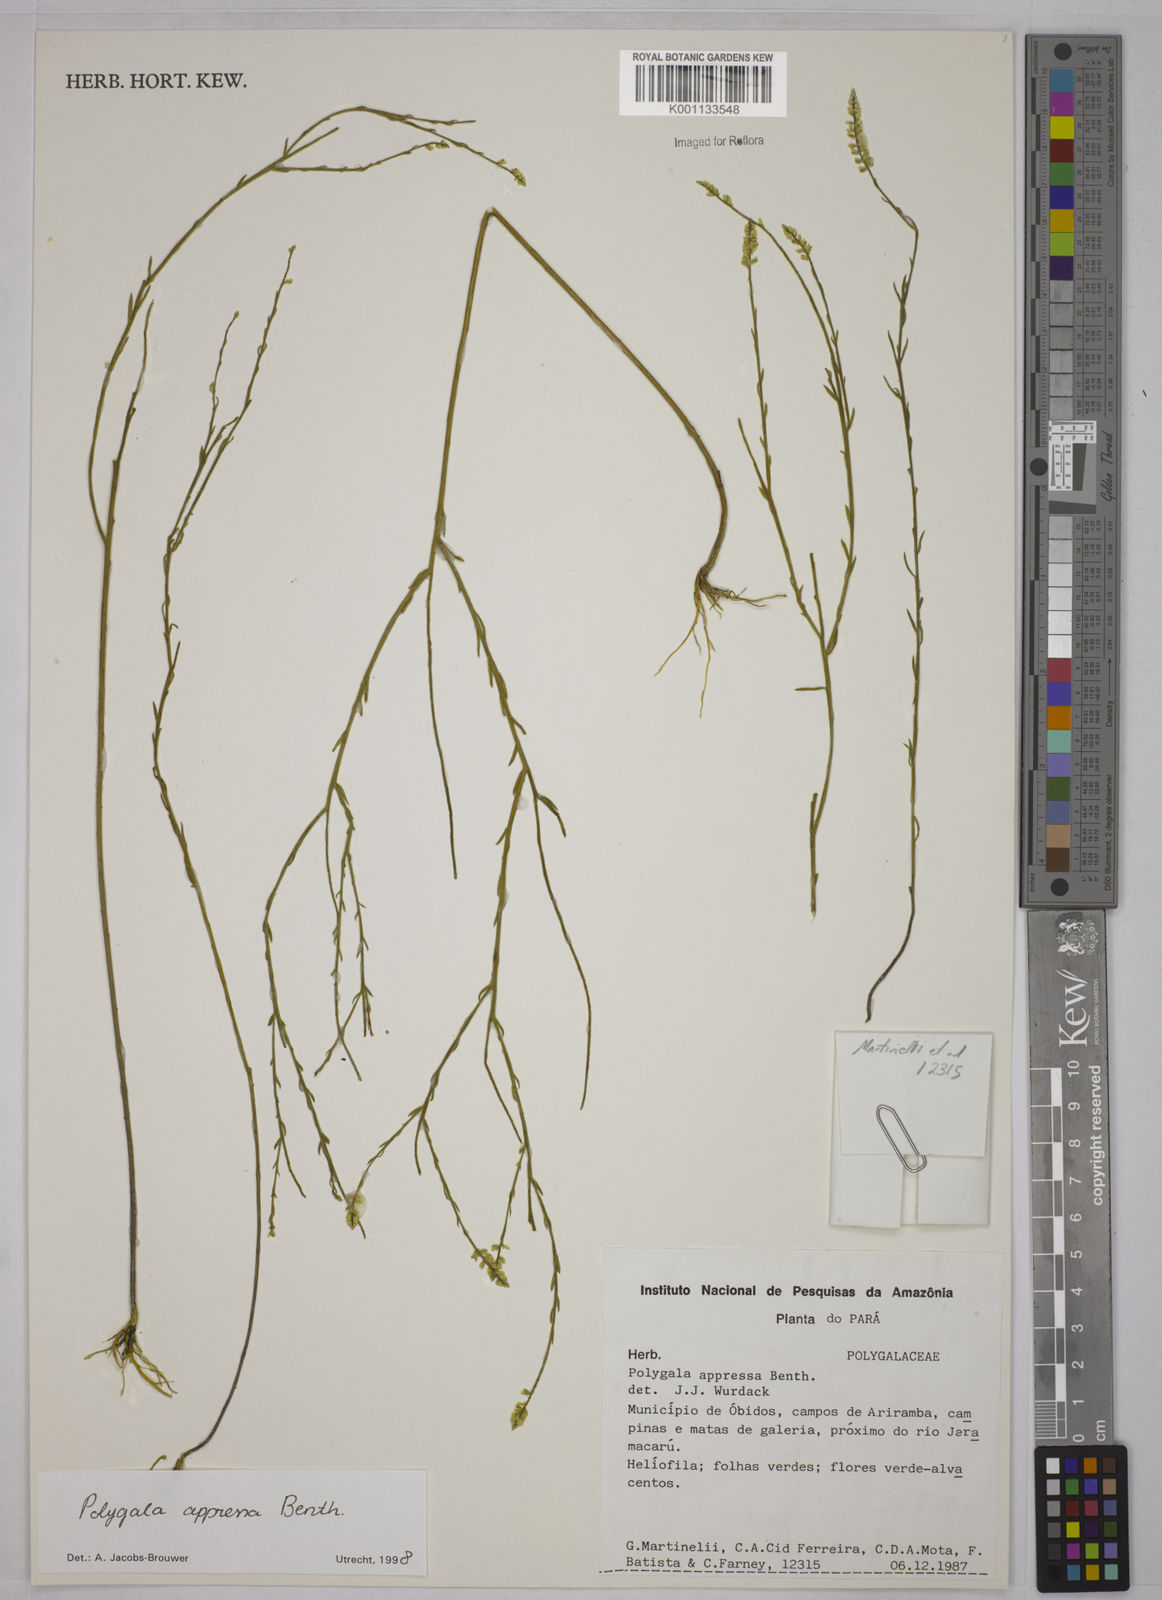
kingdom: Plantae
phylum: Tracheophyta
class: Magnoliopsida
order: Fabales
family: Polygalaceae
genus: Polygala
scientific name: Polygala appressa
